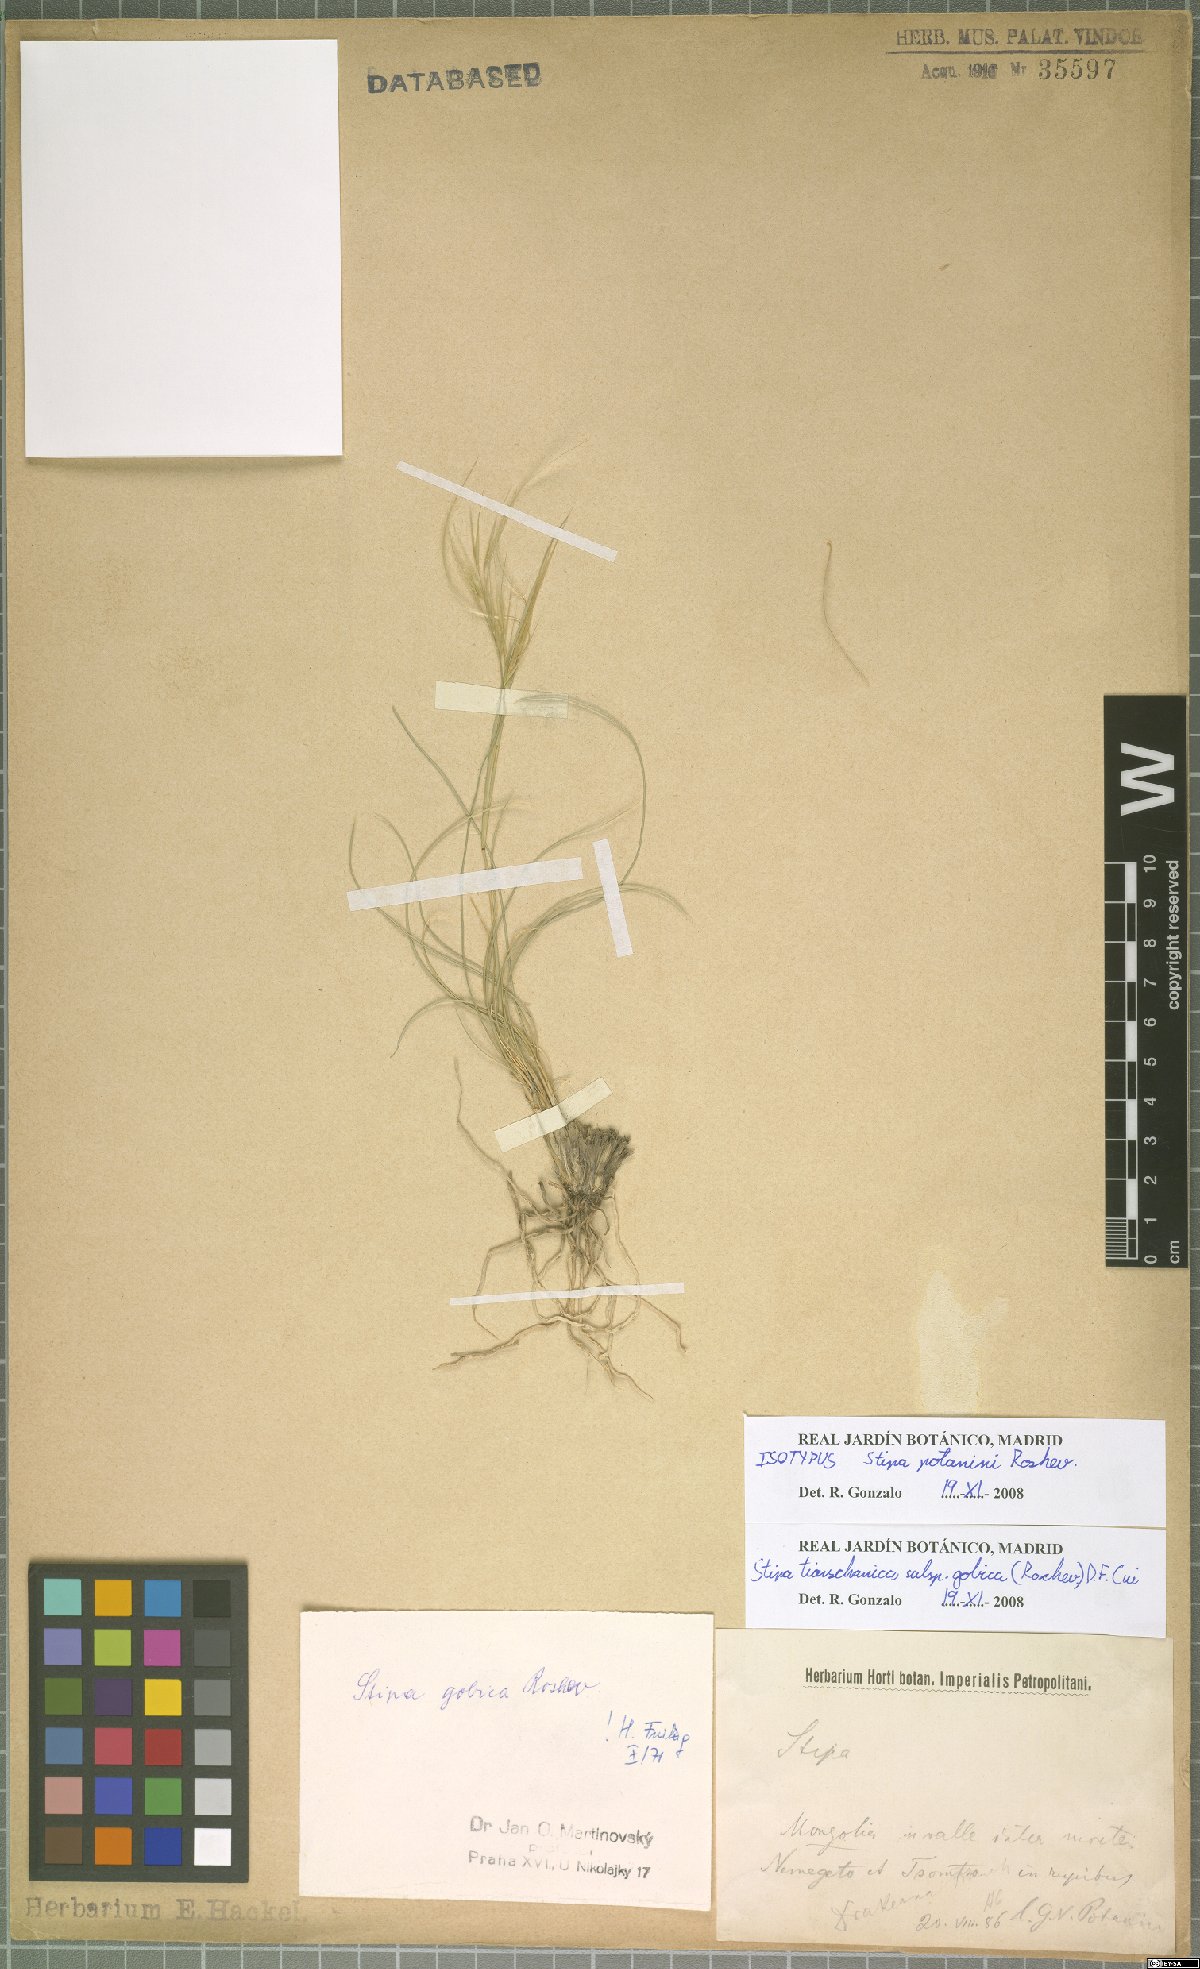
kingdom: Plantae
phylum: Tracheophyta
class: Liliopsida
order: Poales
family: Poaceae
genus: Stipa
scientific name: Stipa tianschanica
